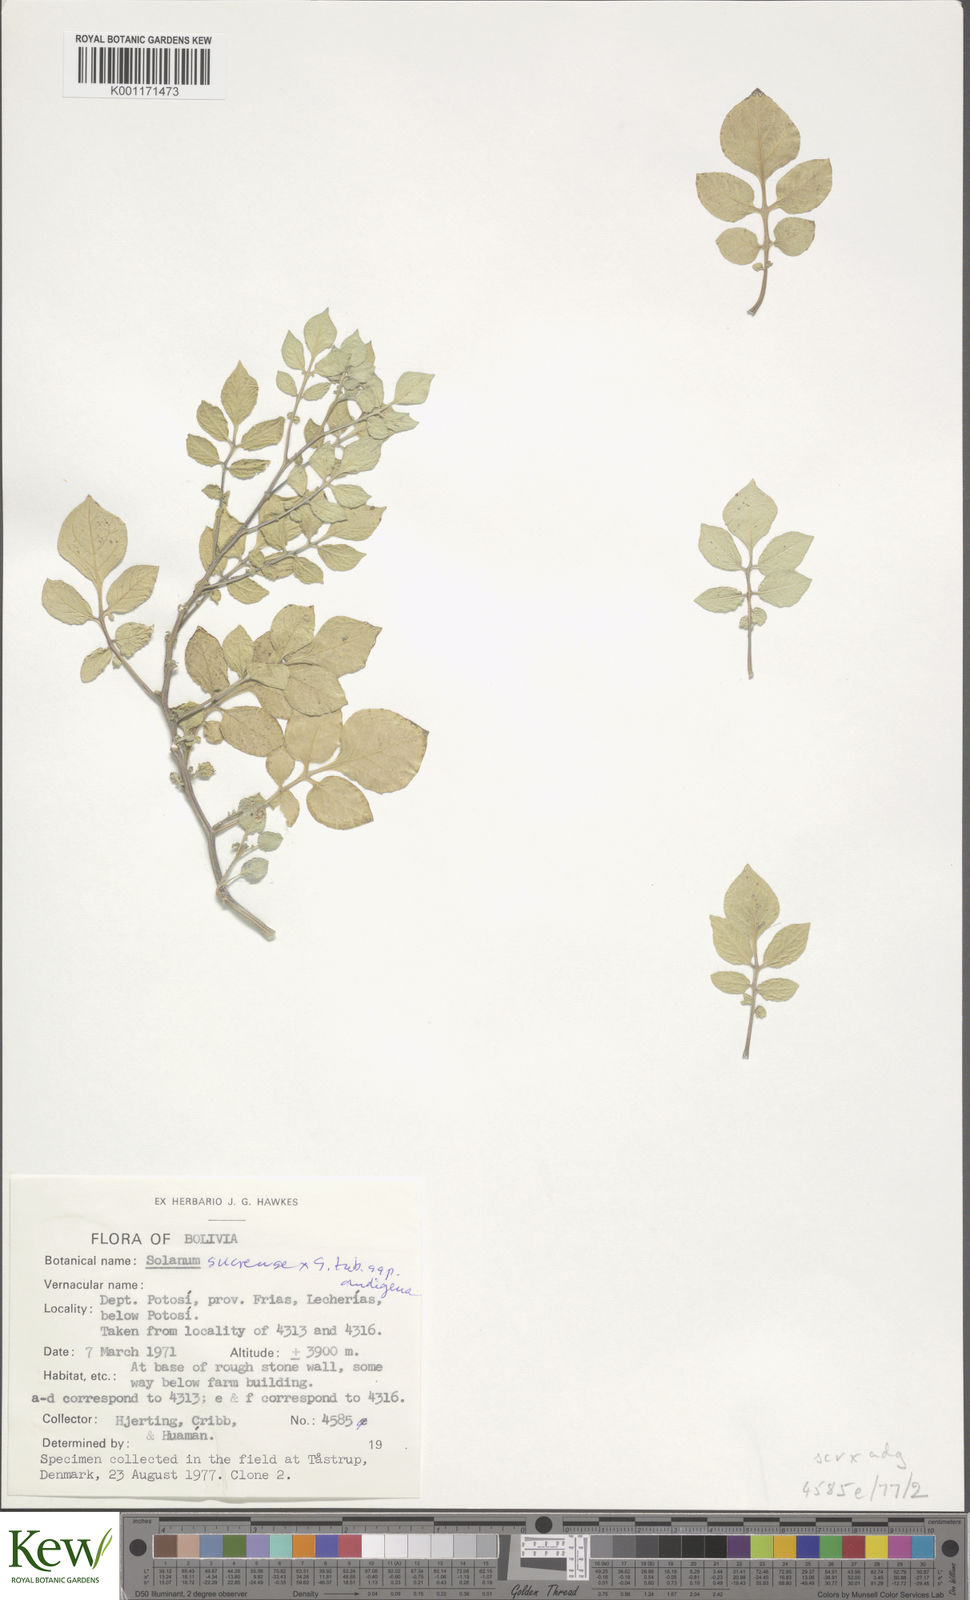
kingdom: Plantae
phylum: Tracheophyta
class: Magnoliopsida
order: Solanales
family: Solanaceae
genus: Solanum
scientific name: Solanum tuberosum
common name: Potato
